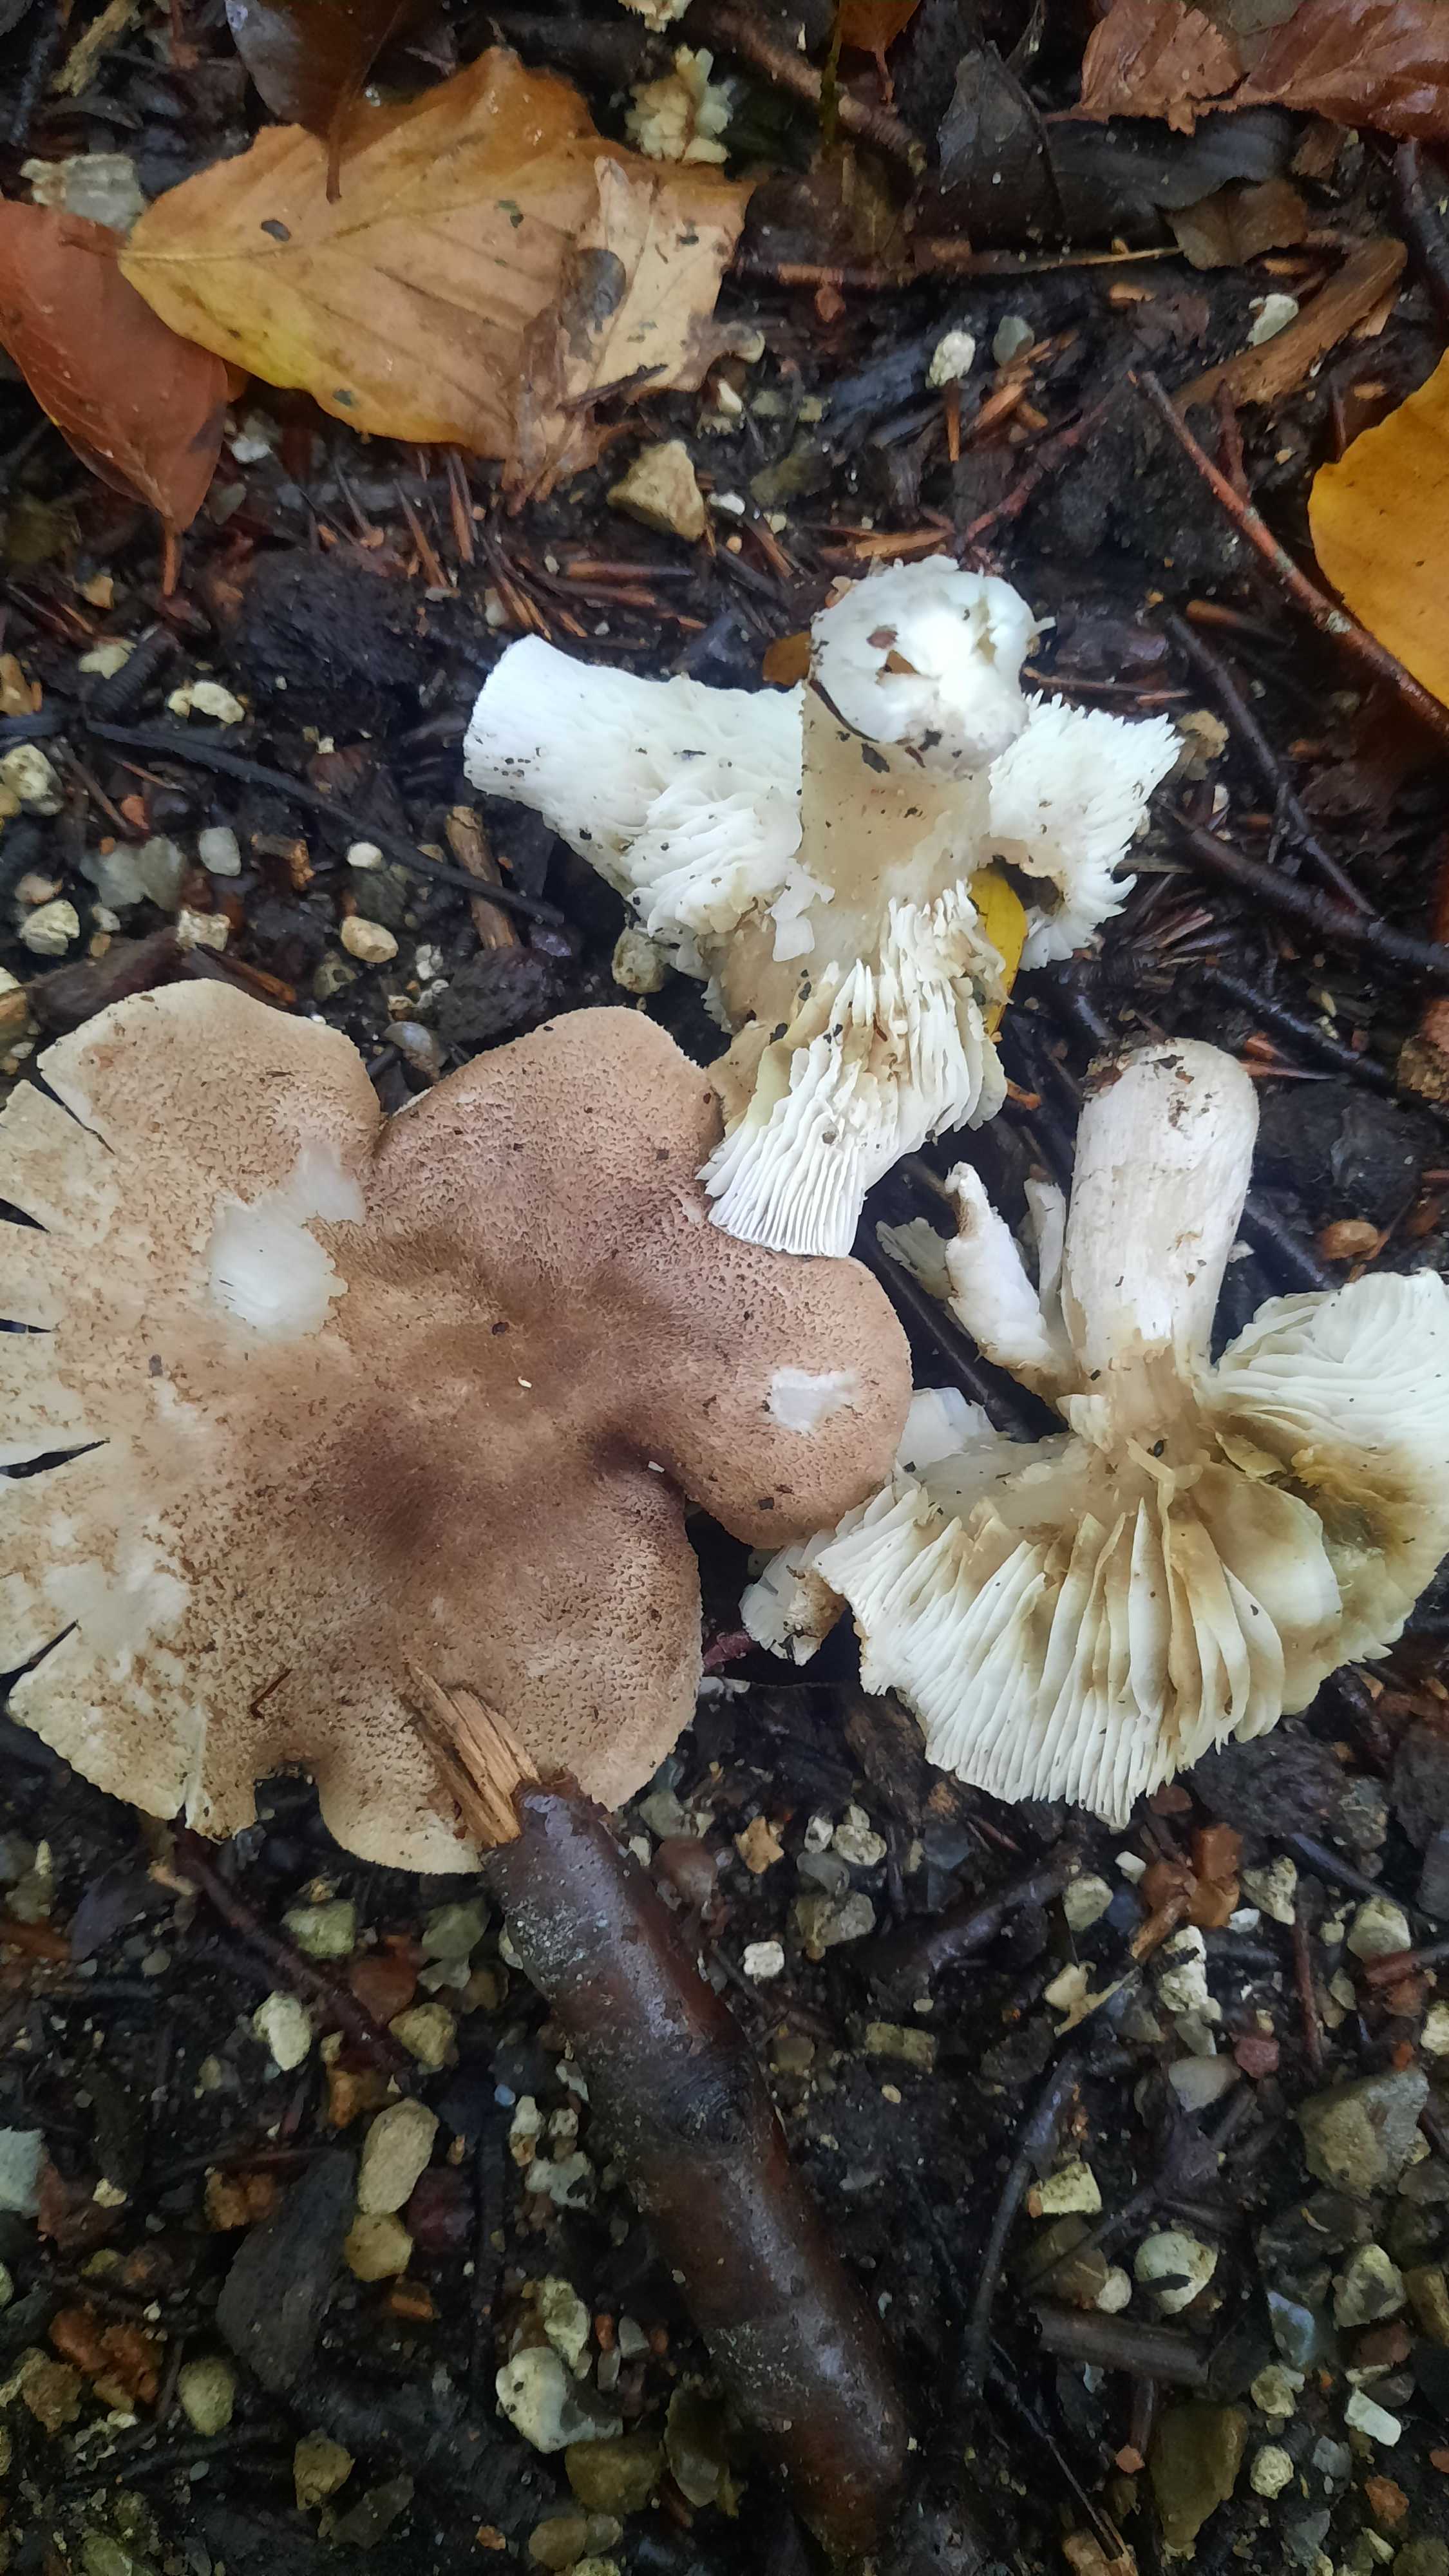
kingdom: Fungi
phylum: Basidiomycota
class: Agaricomycetes
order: Agaricales
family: Tricholomataceae
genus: Tricholoma
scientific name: Tricholoma scalpturatum
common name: gulplettet ridderhat
